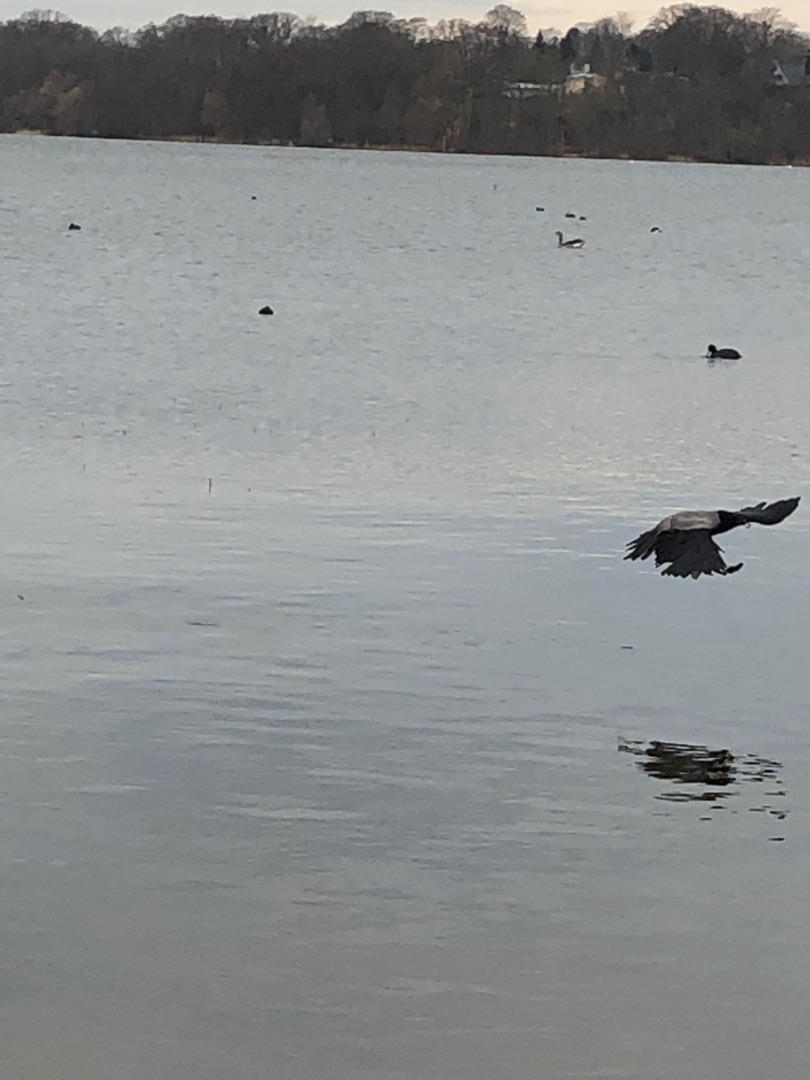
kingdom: Animalia
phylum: Chordata
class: Aves
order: Passeriformes
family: Corvidae
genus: Corvus
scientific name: Corvus cornix
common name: Gråkrage
